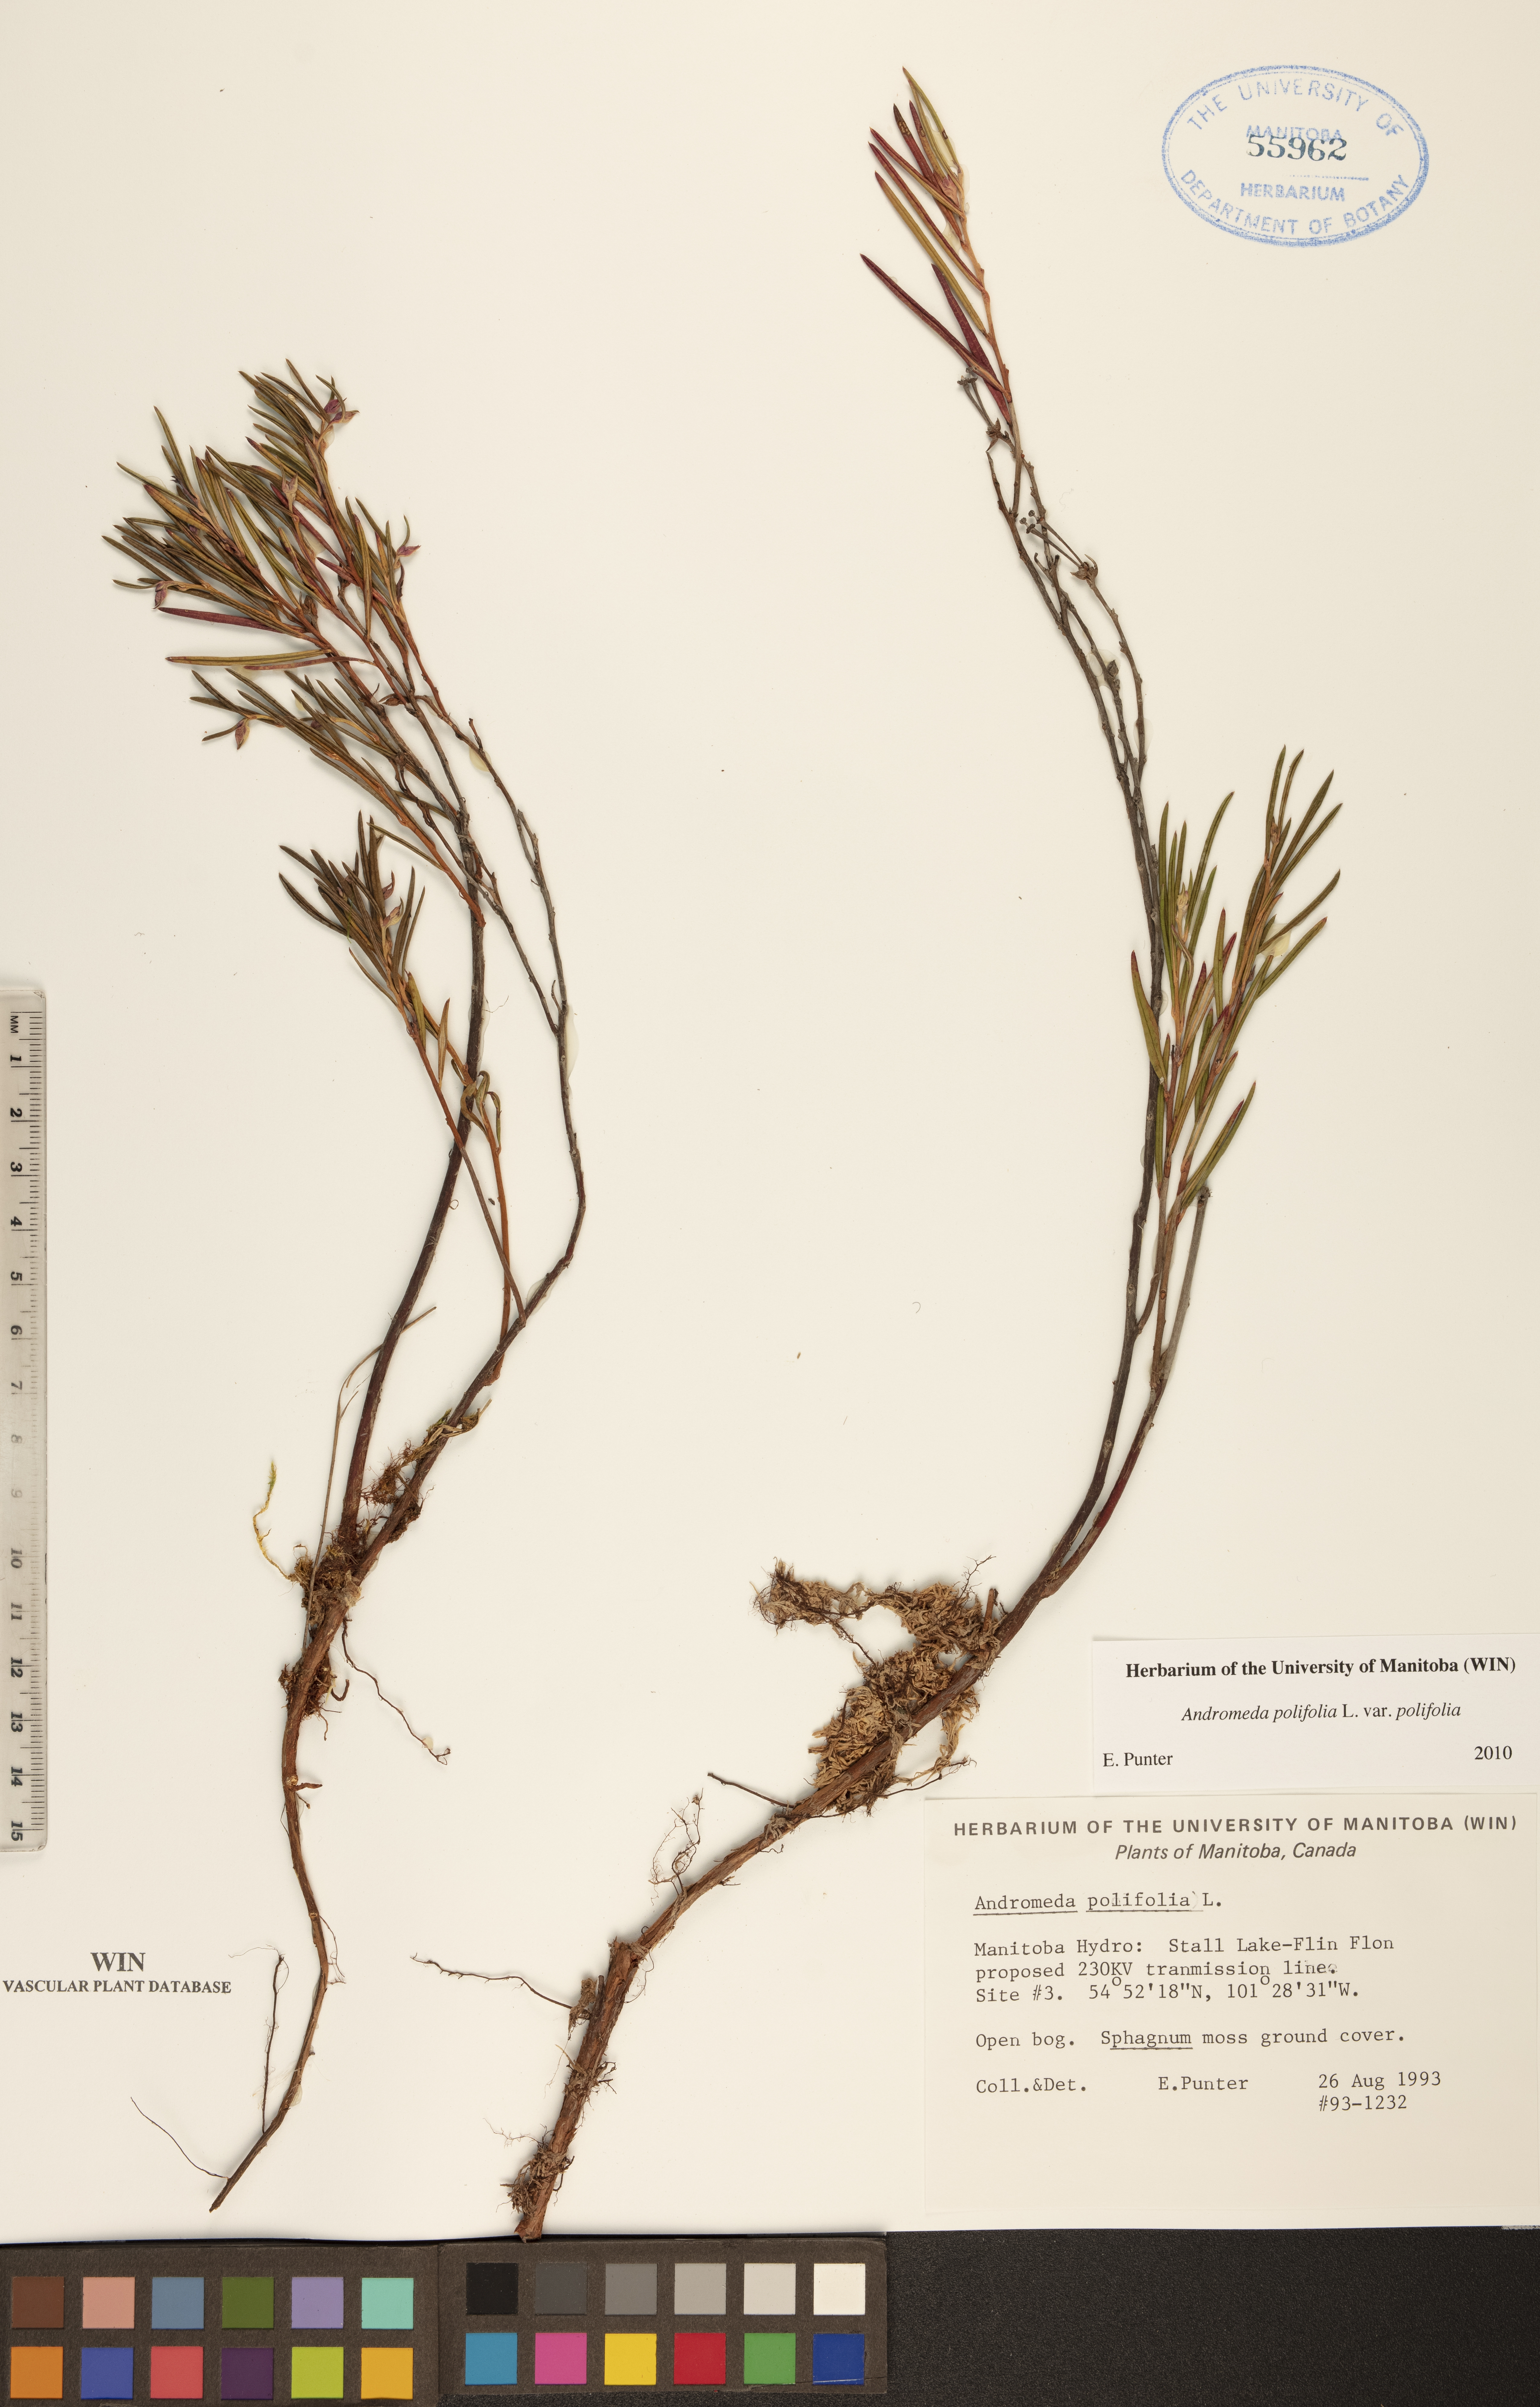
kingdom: Plantae
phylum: Tracheophyta
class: Magnoliopsida
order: Ericales
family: Ericaceae
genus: Andromeda
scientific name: Andromeda polifolia
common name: Bog-rosemary
